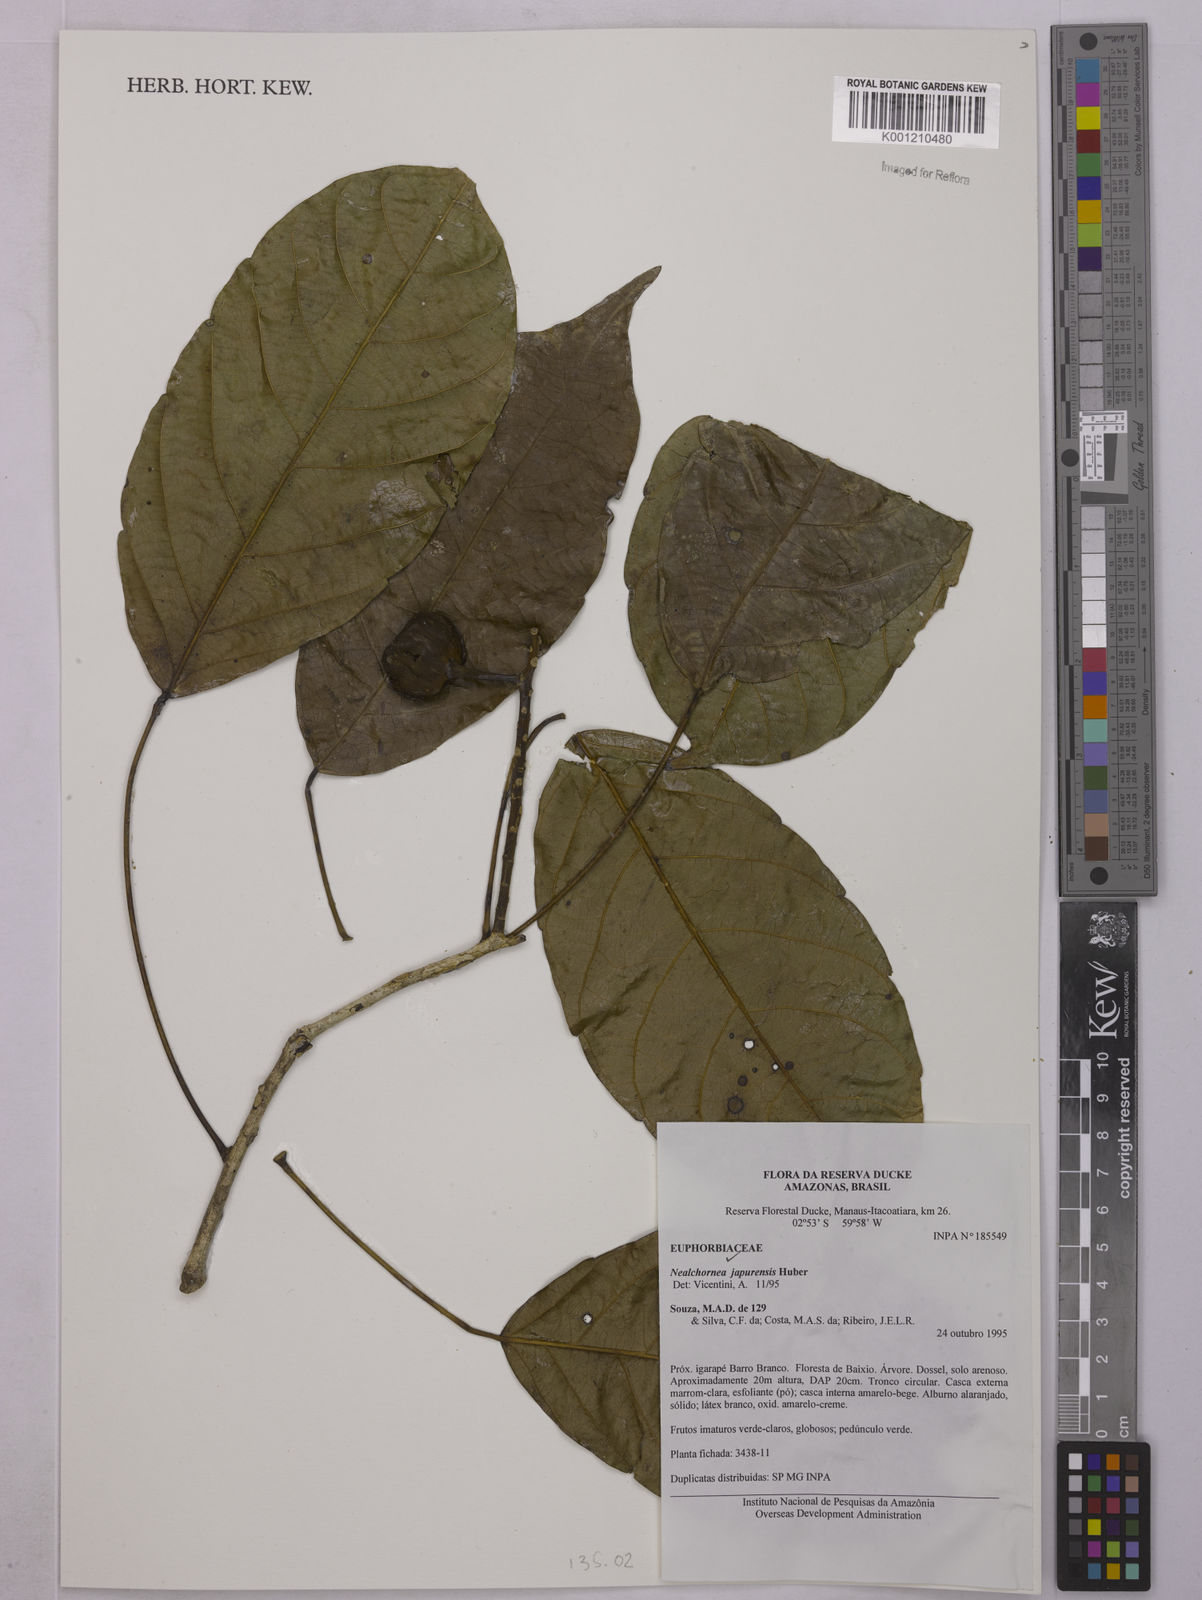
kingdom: Plantae
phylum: Tracheophyta
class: Magnoliopsida
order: Malpighiales
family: Euphorbiaceae
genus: Nealchornea
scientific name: Nealchornea yapurensis
